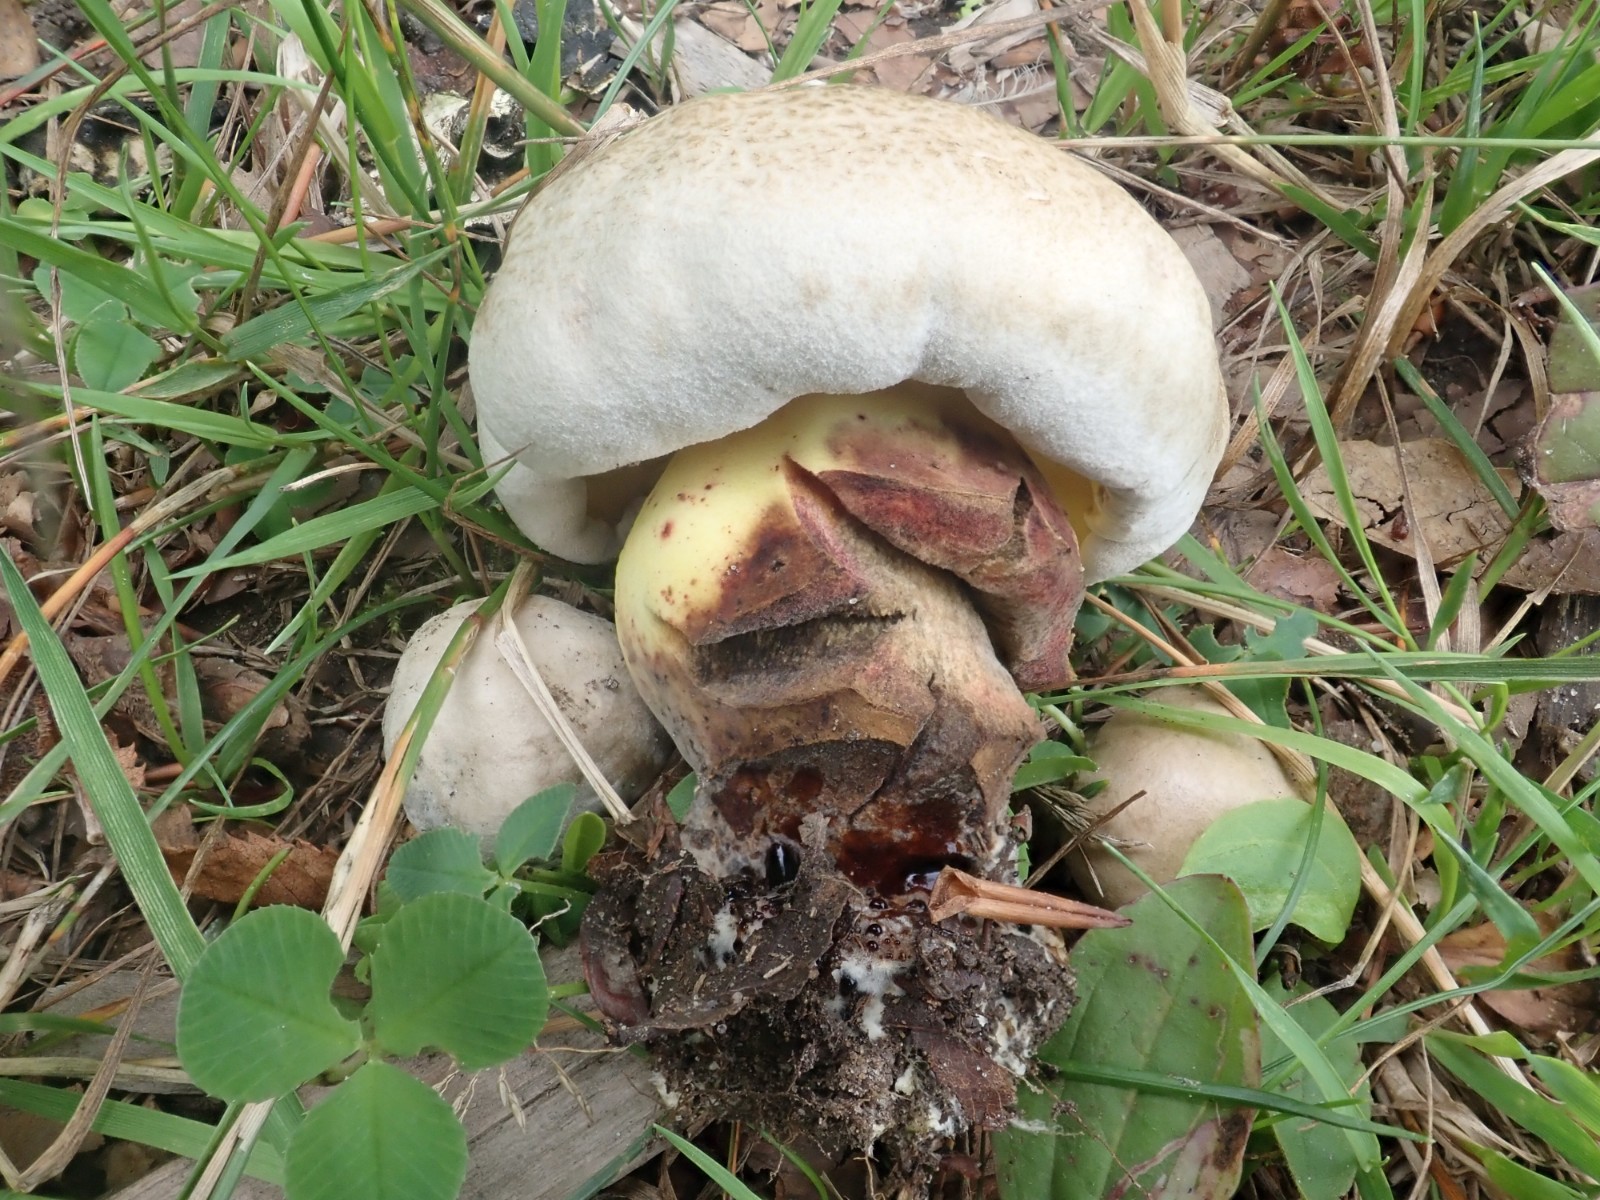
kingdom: Fungi
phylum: Basidiomycota
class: Agaricomycetes
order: Boletales
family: Boletaceae
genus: Caloboletus
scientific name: Caloboletus radicans
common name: rod-rørhat
